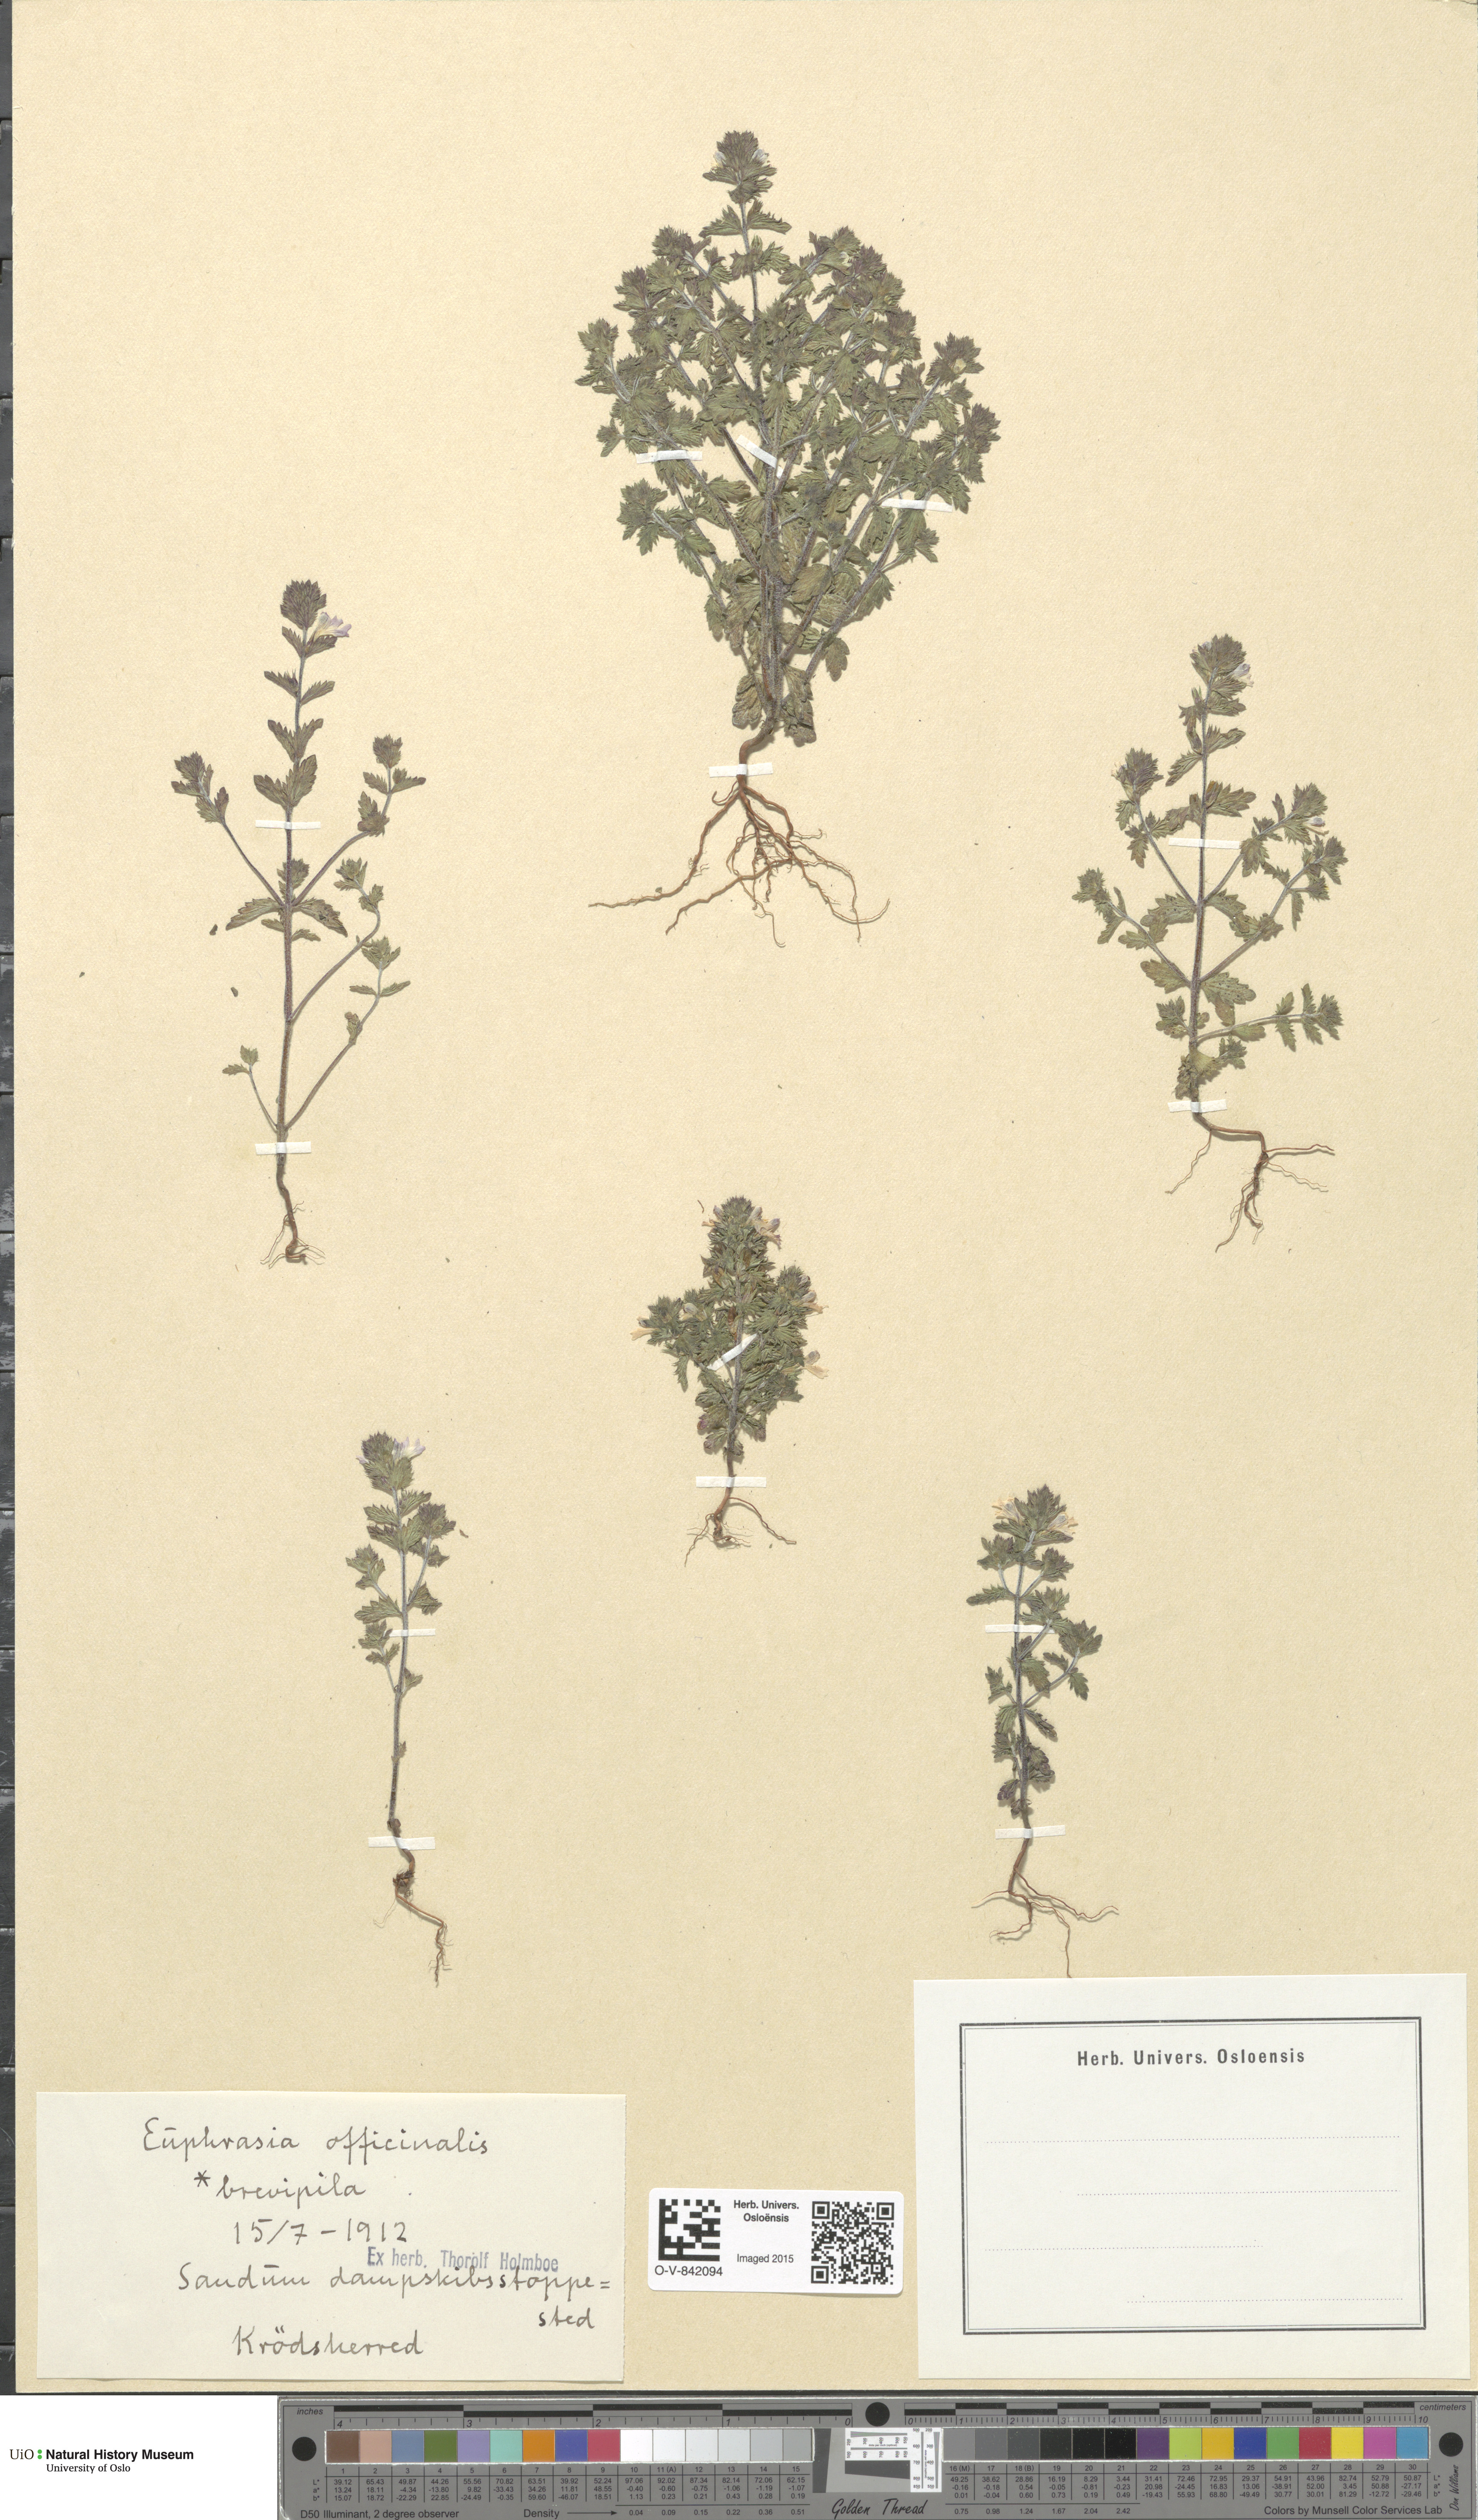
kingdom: Plantae
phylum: Tracheophyta
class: Magnoliopsida
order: Lamiales
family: Orobanchaceae
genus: Euphrasia
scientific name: Euphrasia vernalis
